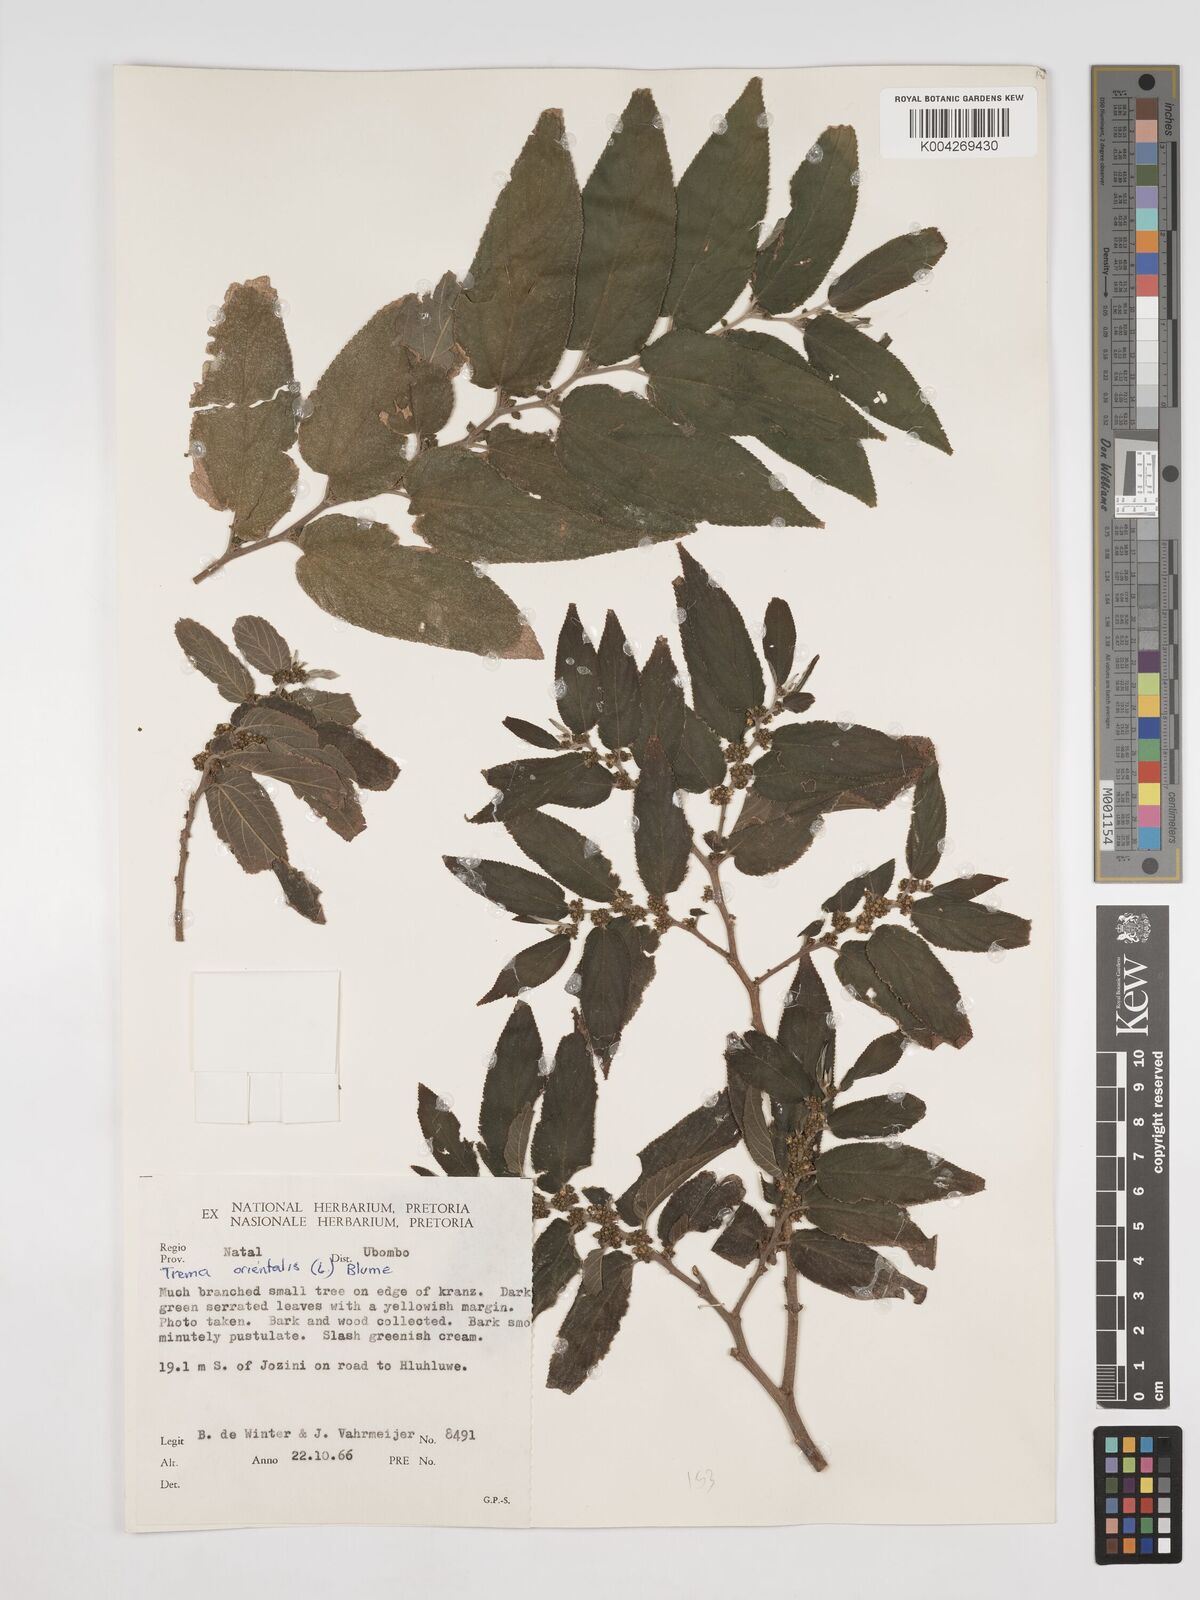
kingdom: Plantae
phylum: Tracheophyta
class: Magnoliopsida
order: Rosales
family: Cannabaceae
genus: Trema
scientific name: Trema orientale
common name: Indian charcoal tree
